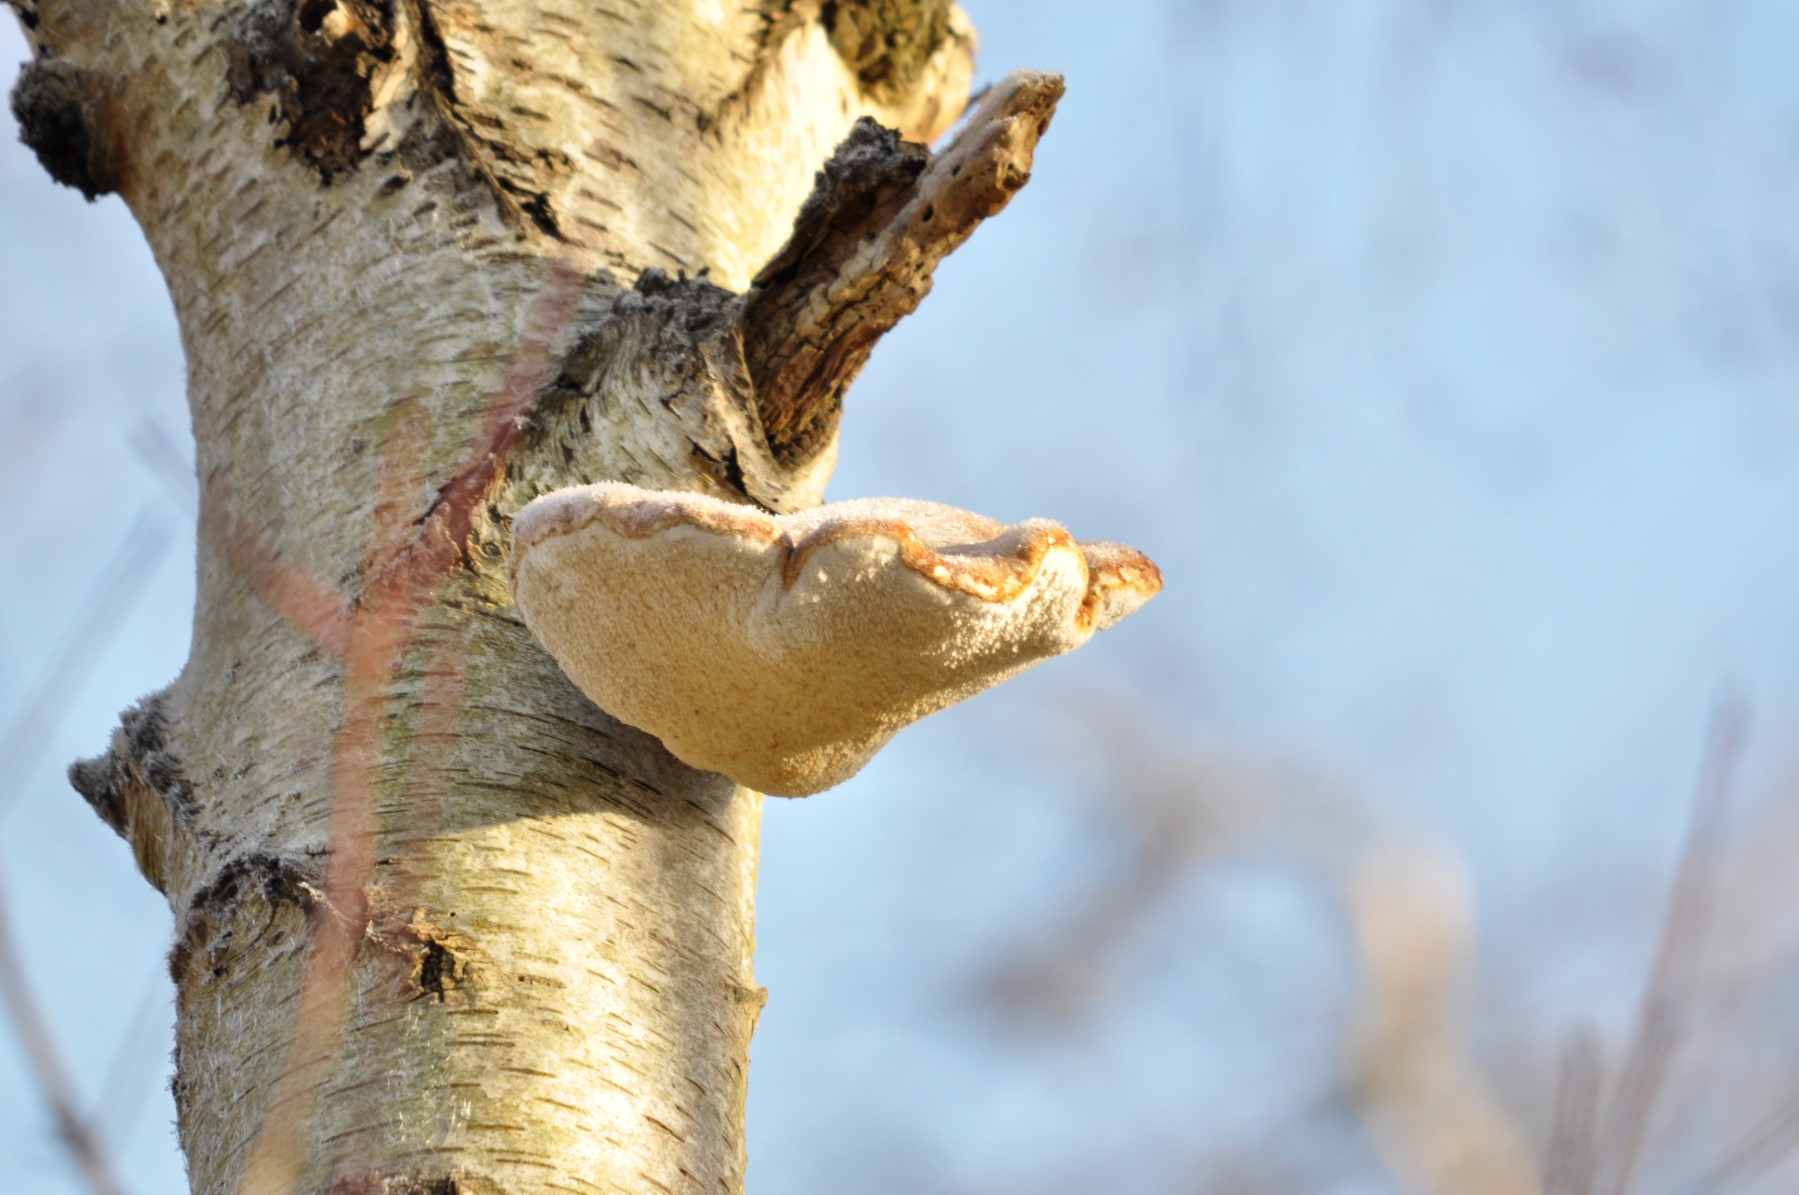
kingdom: Fungi
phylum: Basidiomycota
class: Agaricomycetes
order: Polyporales
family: Fomitopsidaceae
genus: Fomitopsis
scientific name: Fomitopsis betulina
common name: birkeporesvamp
